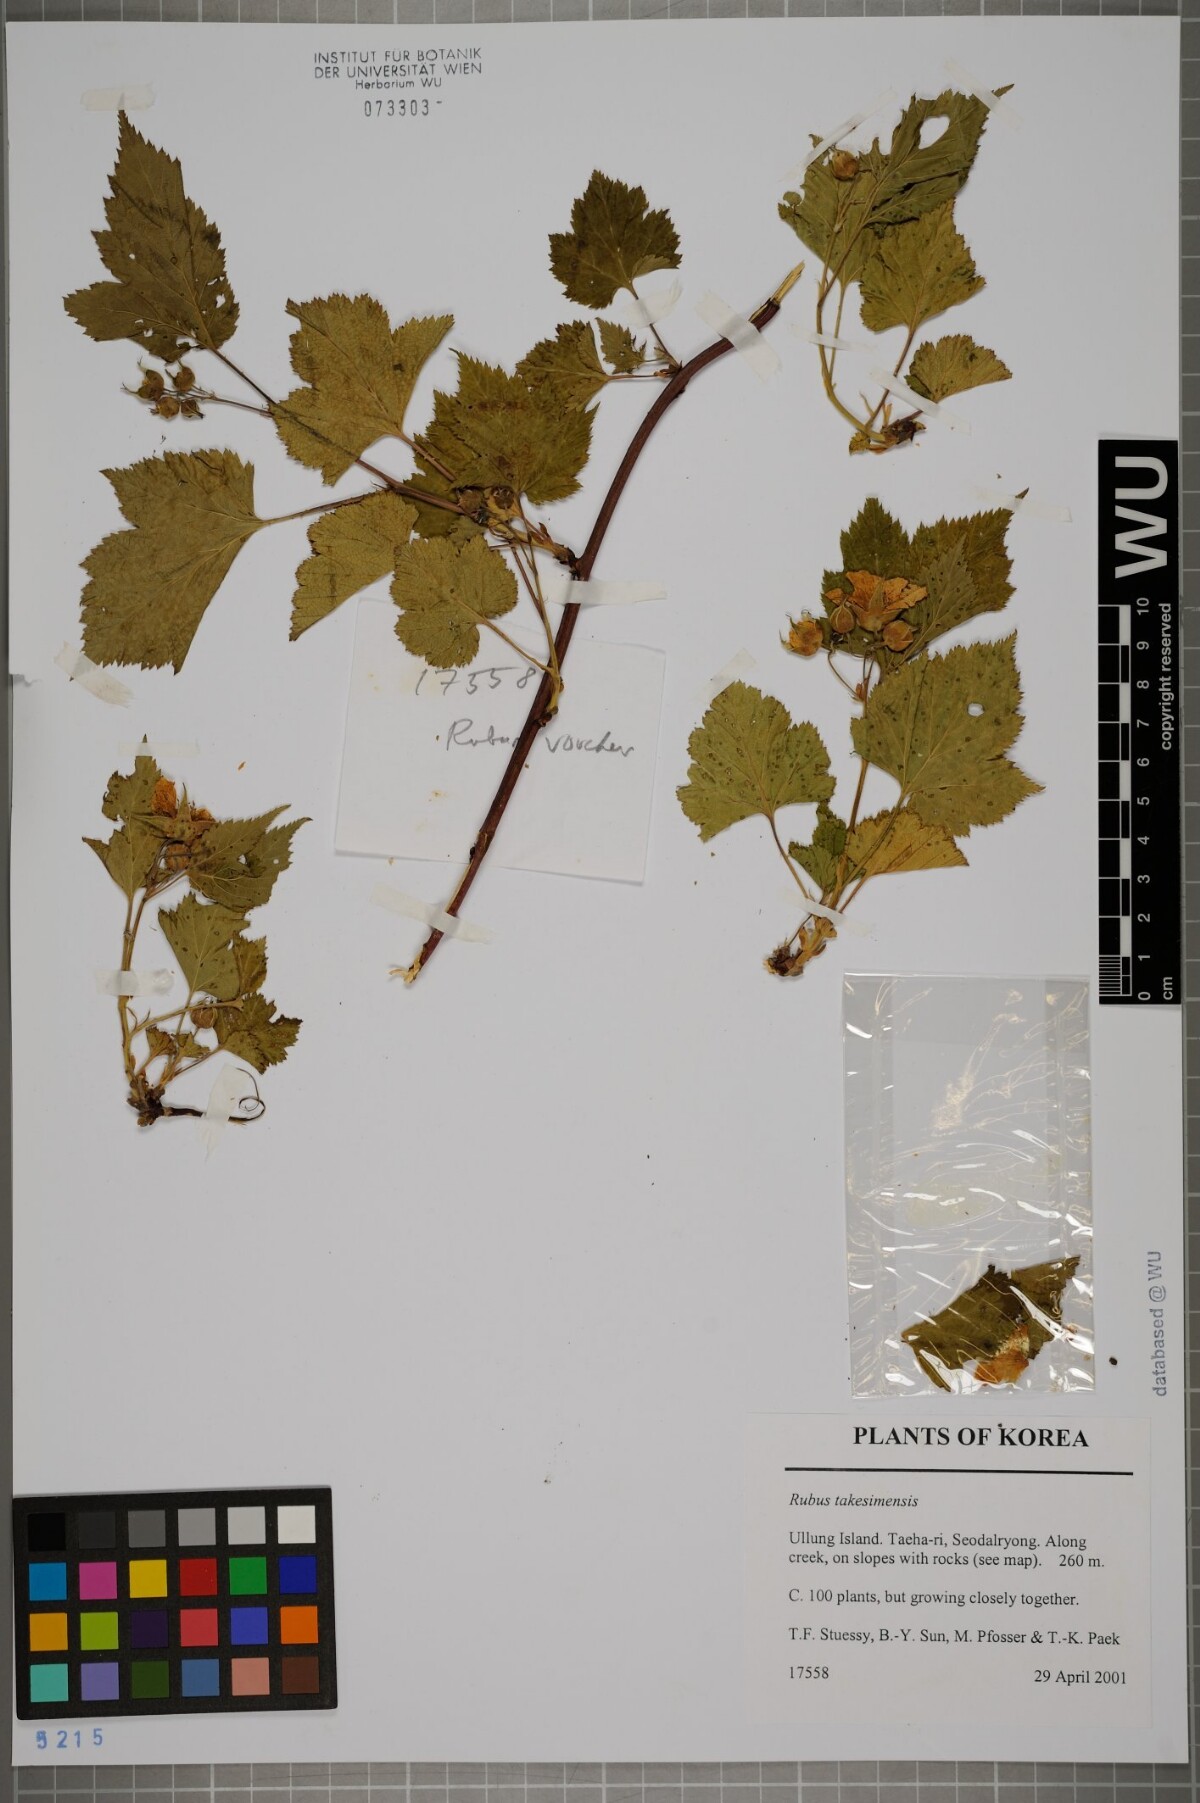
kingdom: Plantae
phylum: Tracheophyta
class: Magnoliopsida
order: Rosales
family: Rosaceae
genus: Rubus
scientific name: Rubus crataegifolius
